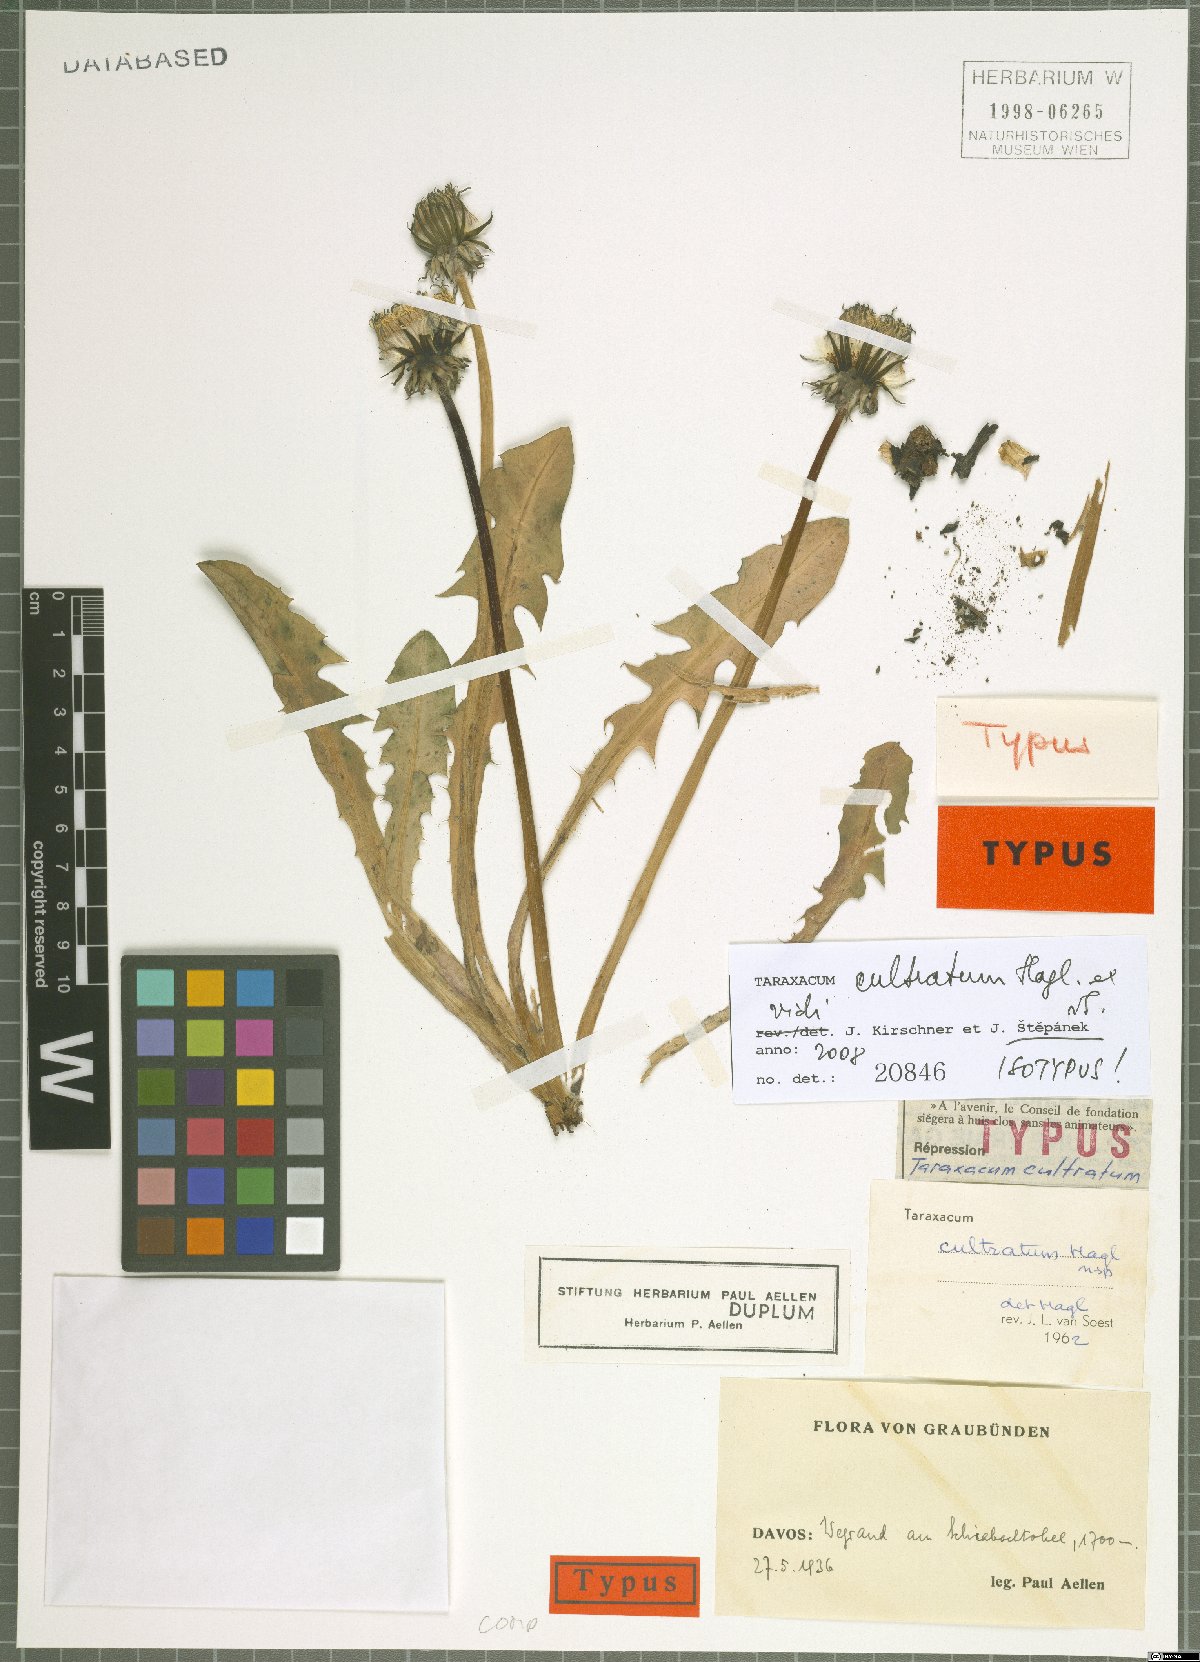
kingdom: Plantae
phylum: Tracheophyta
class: Magnoliopsida
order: Asterales
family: Asteraceae
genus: Taraxacum
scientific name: Taraxacum cultratum
